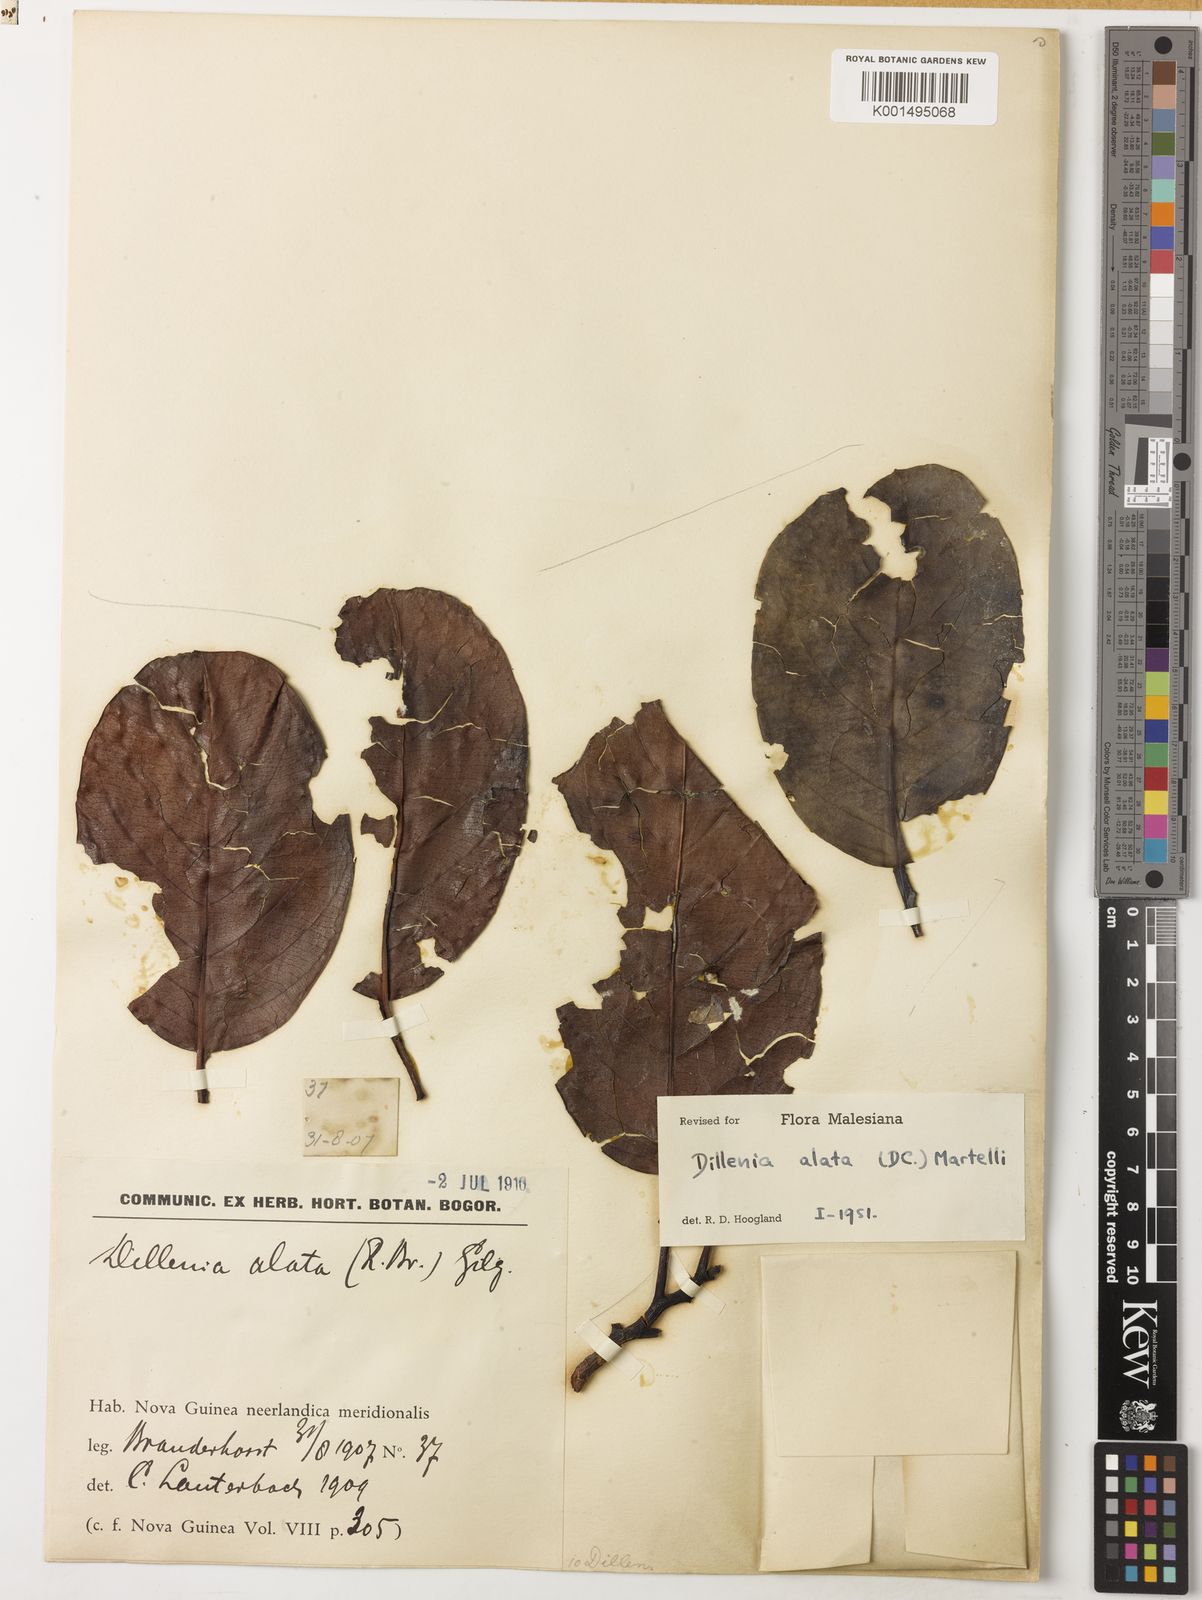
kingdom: Plantae
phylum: Tracheophyta
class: Magnoliopsida
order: Dilleniales
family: Dilleniaceae
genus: Dillenia
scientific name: Dillenia alata
